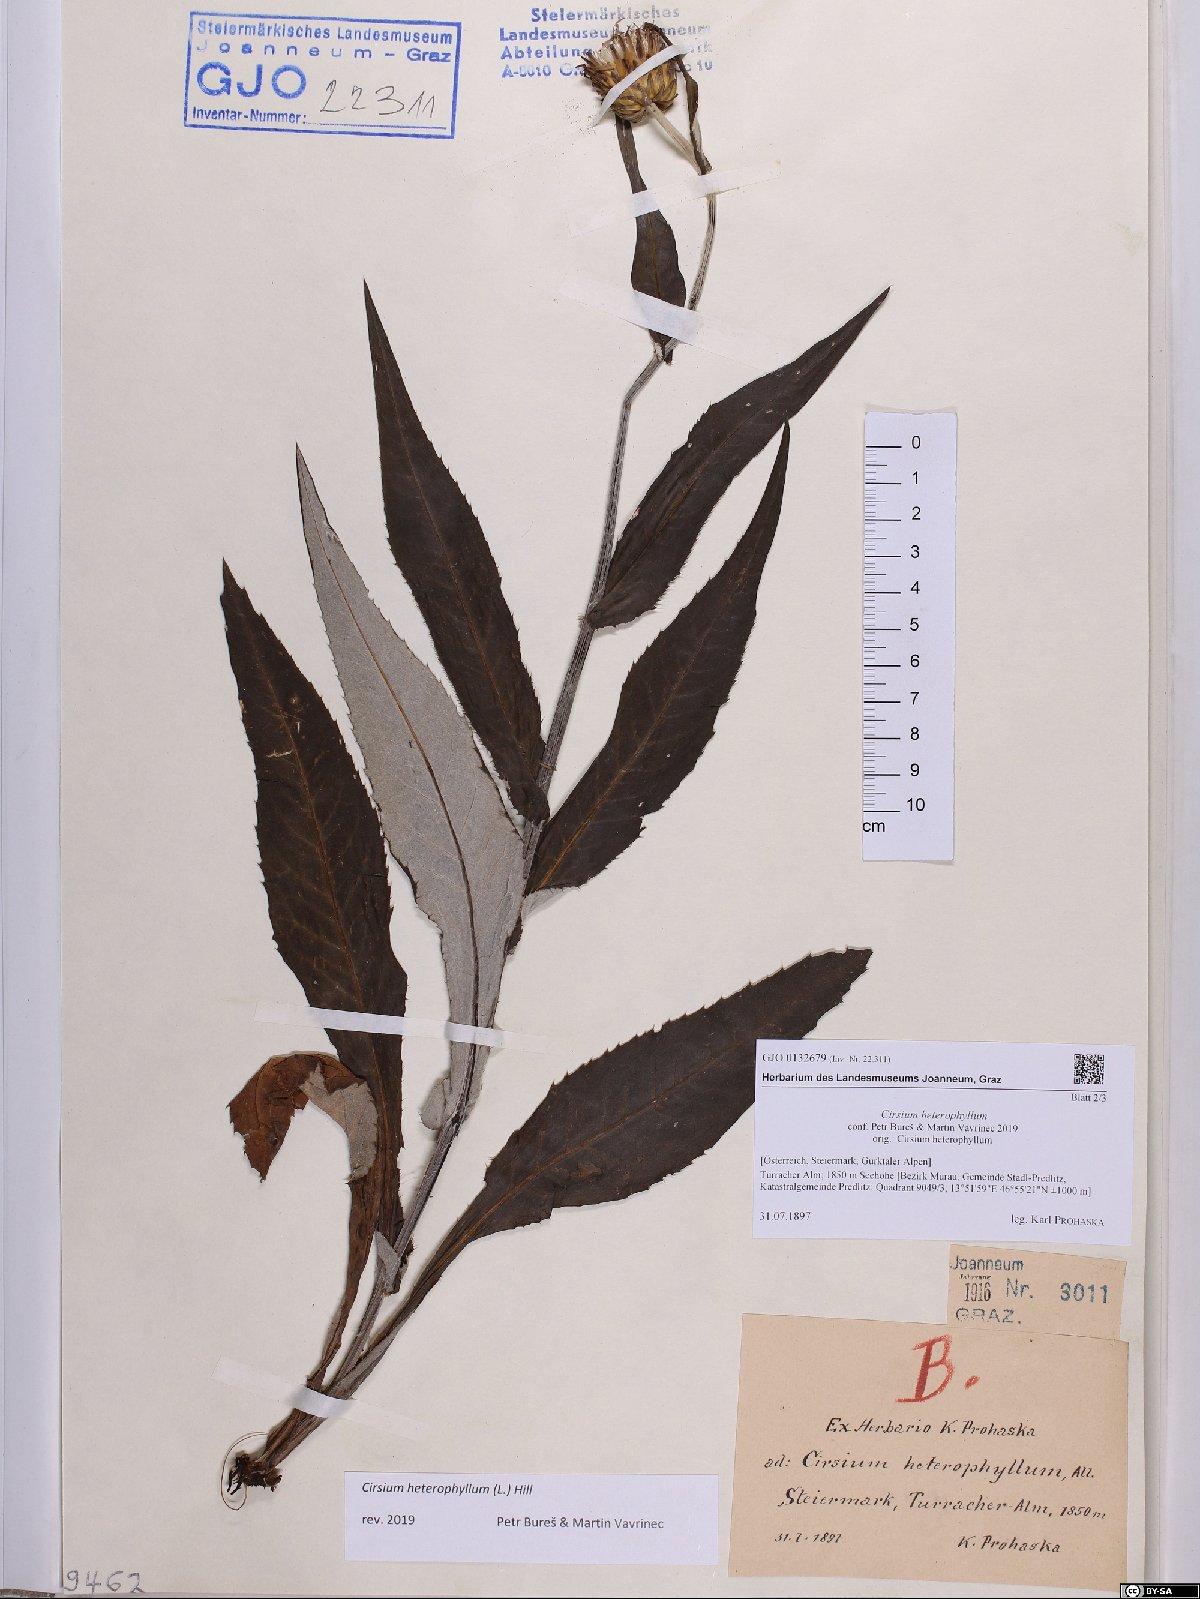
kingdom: Plantae
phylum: Tracheophyta
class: Magnoliopsida
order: Asterales
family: Asteraceae
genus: Cirsium
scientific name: Cirsium heterophyllum
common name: Melancholy thistle
